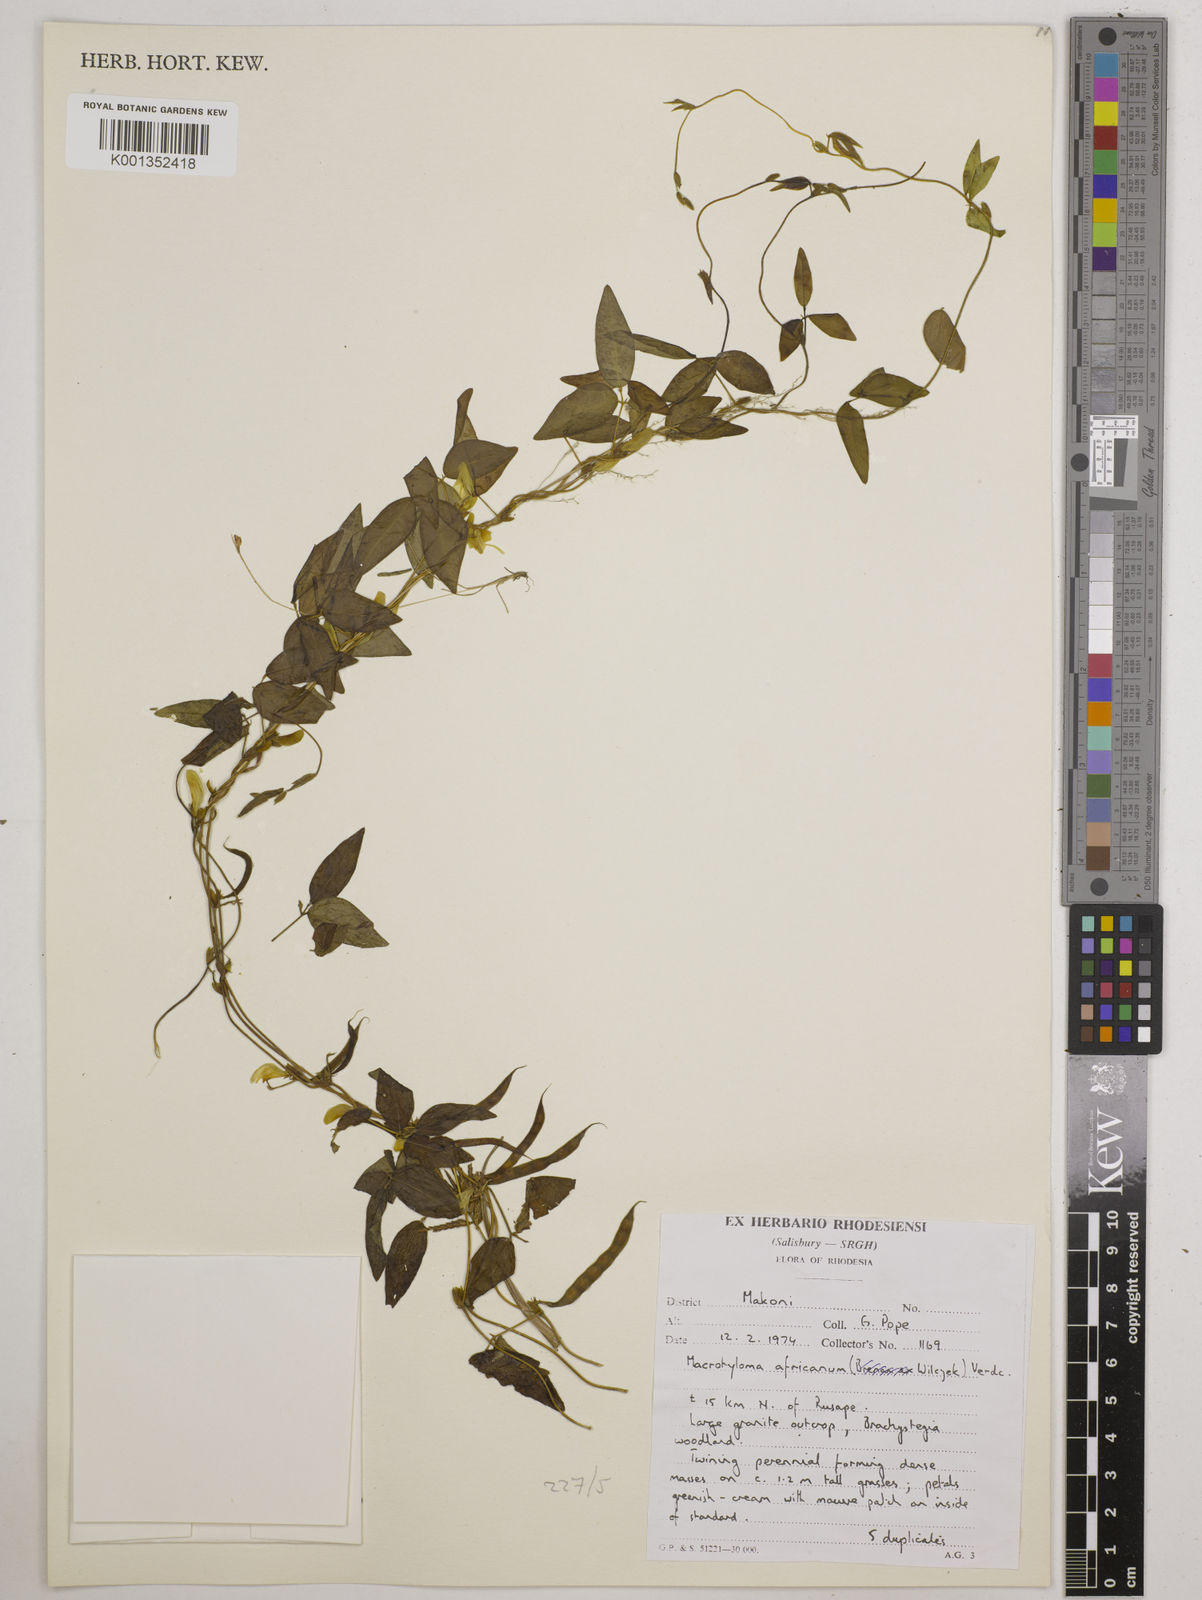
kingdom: Plantae
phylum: Tracheophyta
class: Magnoliopsida
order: Fabales
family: Fabaceae
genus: Macrotyloma
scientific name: Macrotyloma africanum
